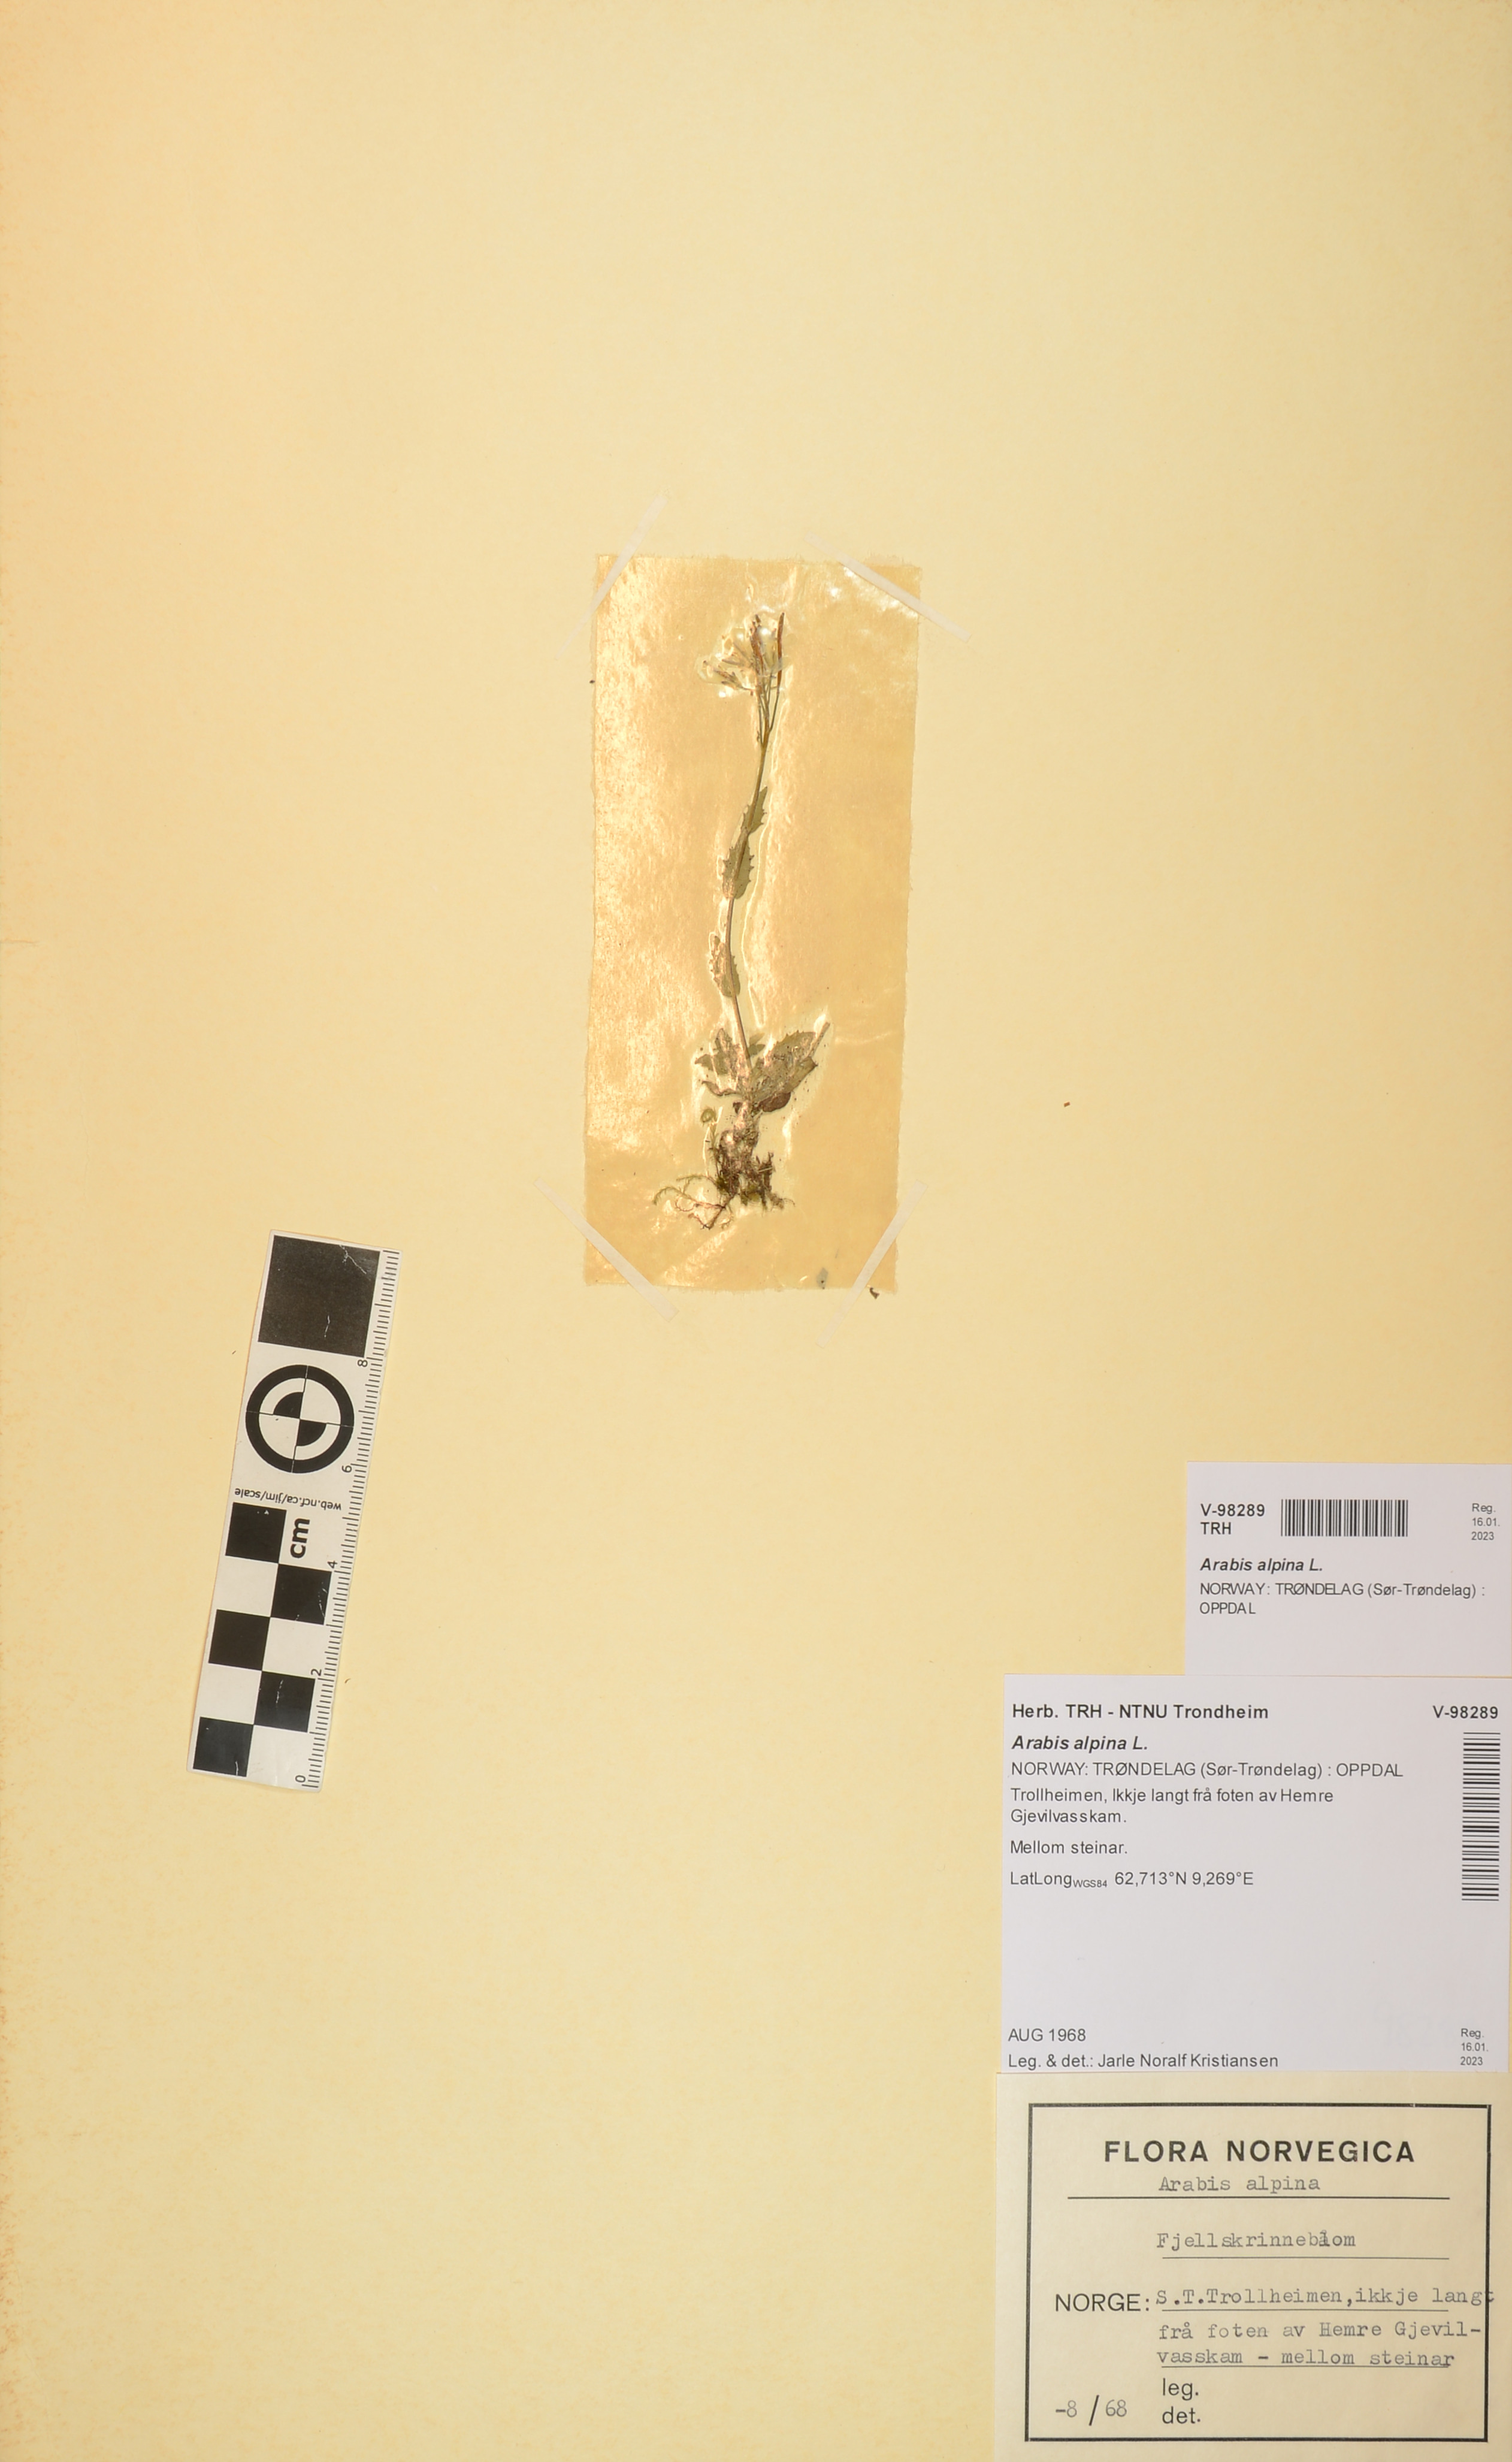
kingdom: Plantae
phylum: Tracheophyta
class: Magnoliopsida
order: Brassicales
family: Brassicaceae
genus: Arabis
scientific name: Arabis alpina
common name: Alpine rock-cress
